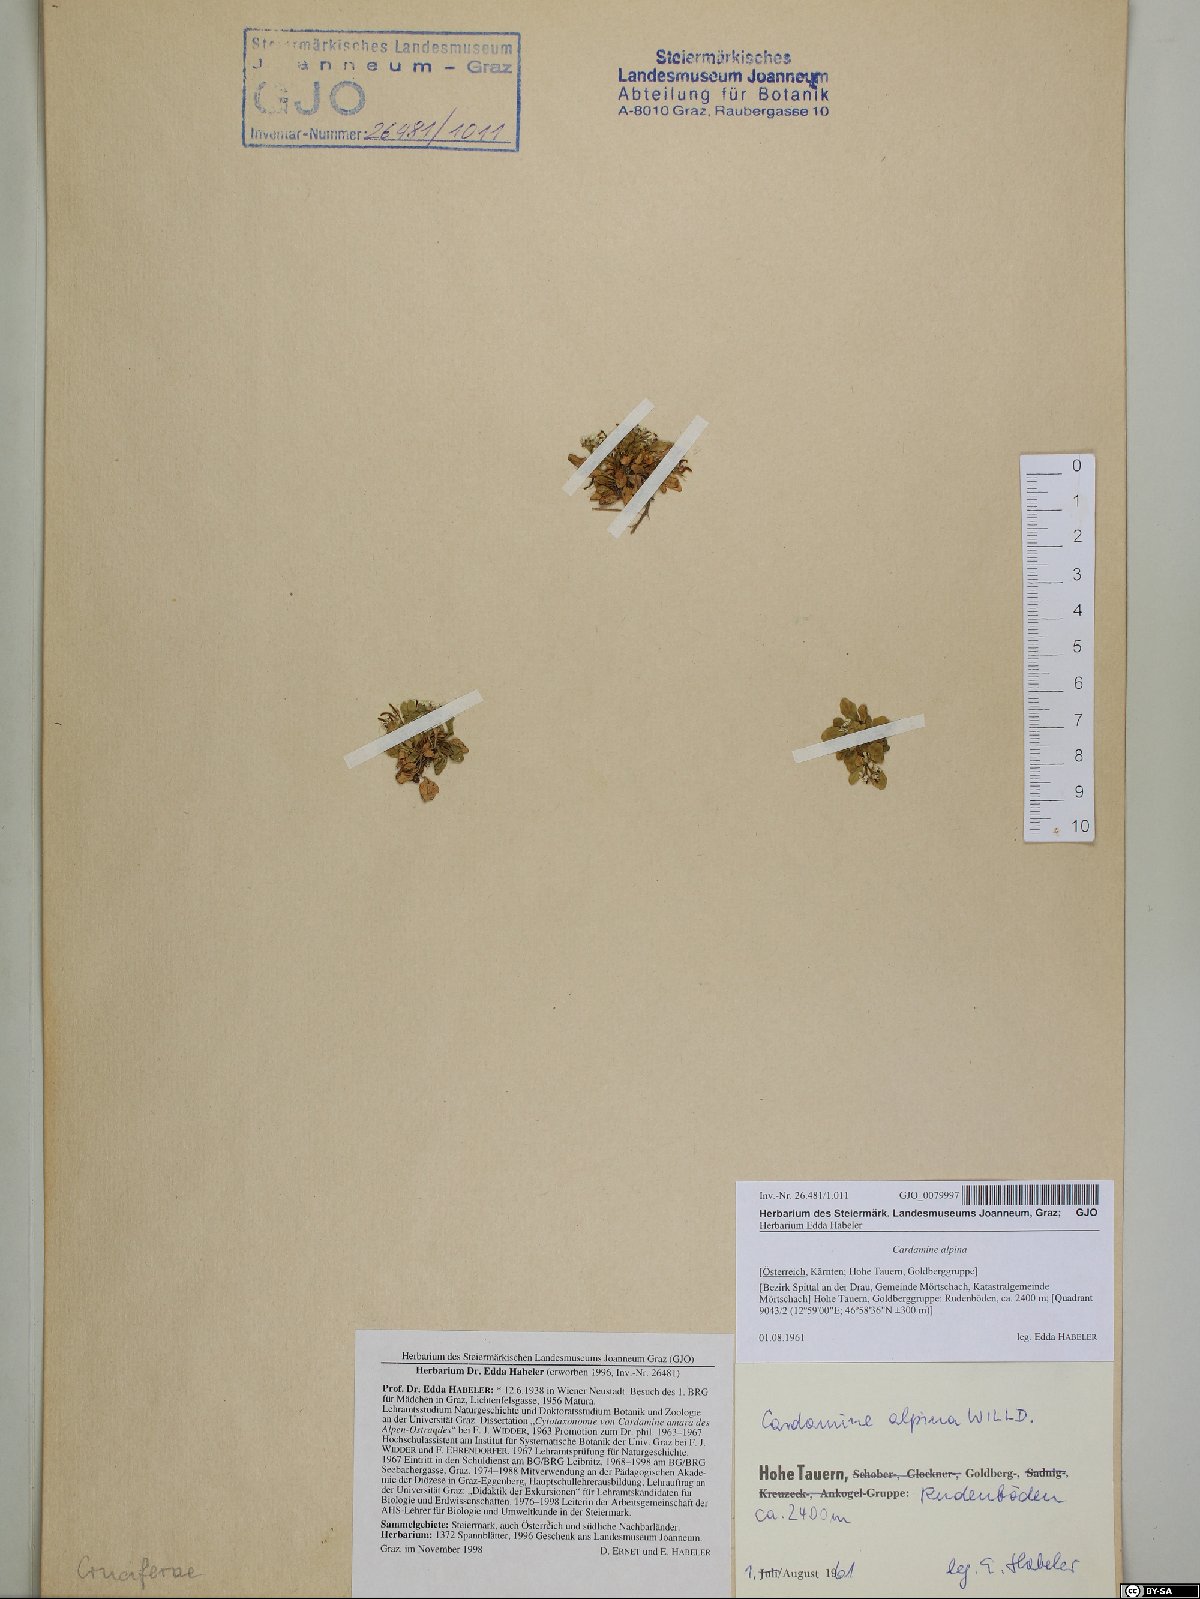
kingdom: Plantae
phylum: Tracheophyta
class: Magnoliopsida
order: Brassicales
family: Brassicaceae
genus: Cardamine
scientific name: Cardamine bellidifolia
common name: Alpine bittercress
